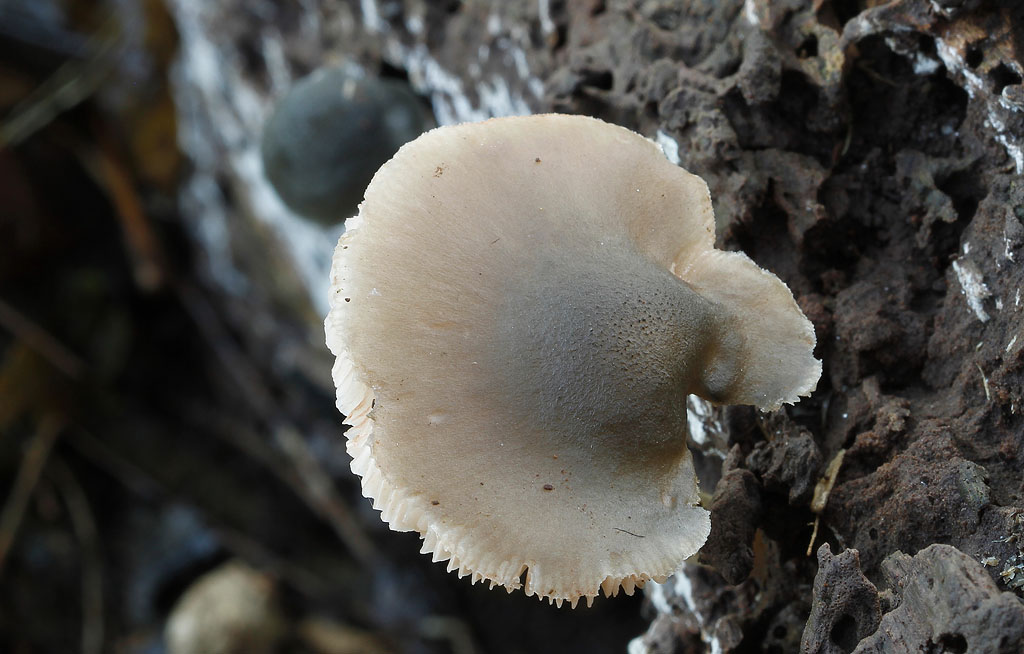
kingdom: Fungi
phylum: Basidiomycota
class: Agaricomycetes
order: Agaricales
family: Pluteaceae
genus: Pluteus
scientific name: Pluteus salicinus
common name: stiv skærmhat
